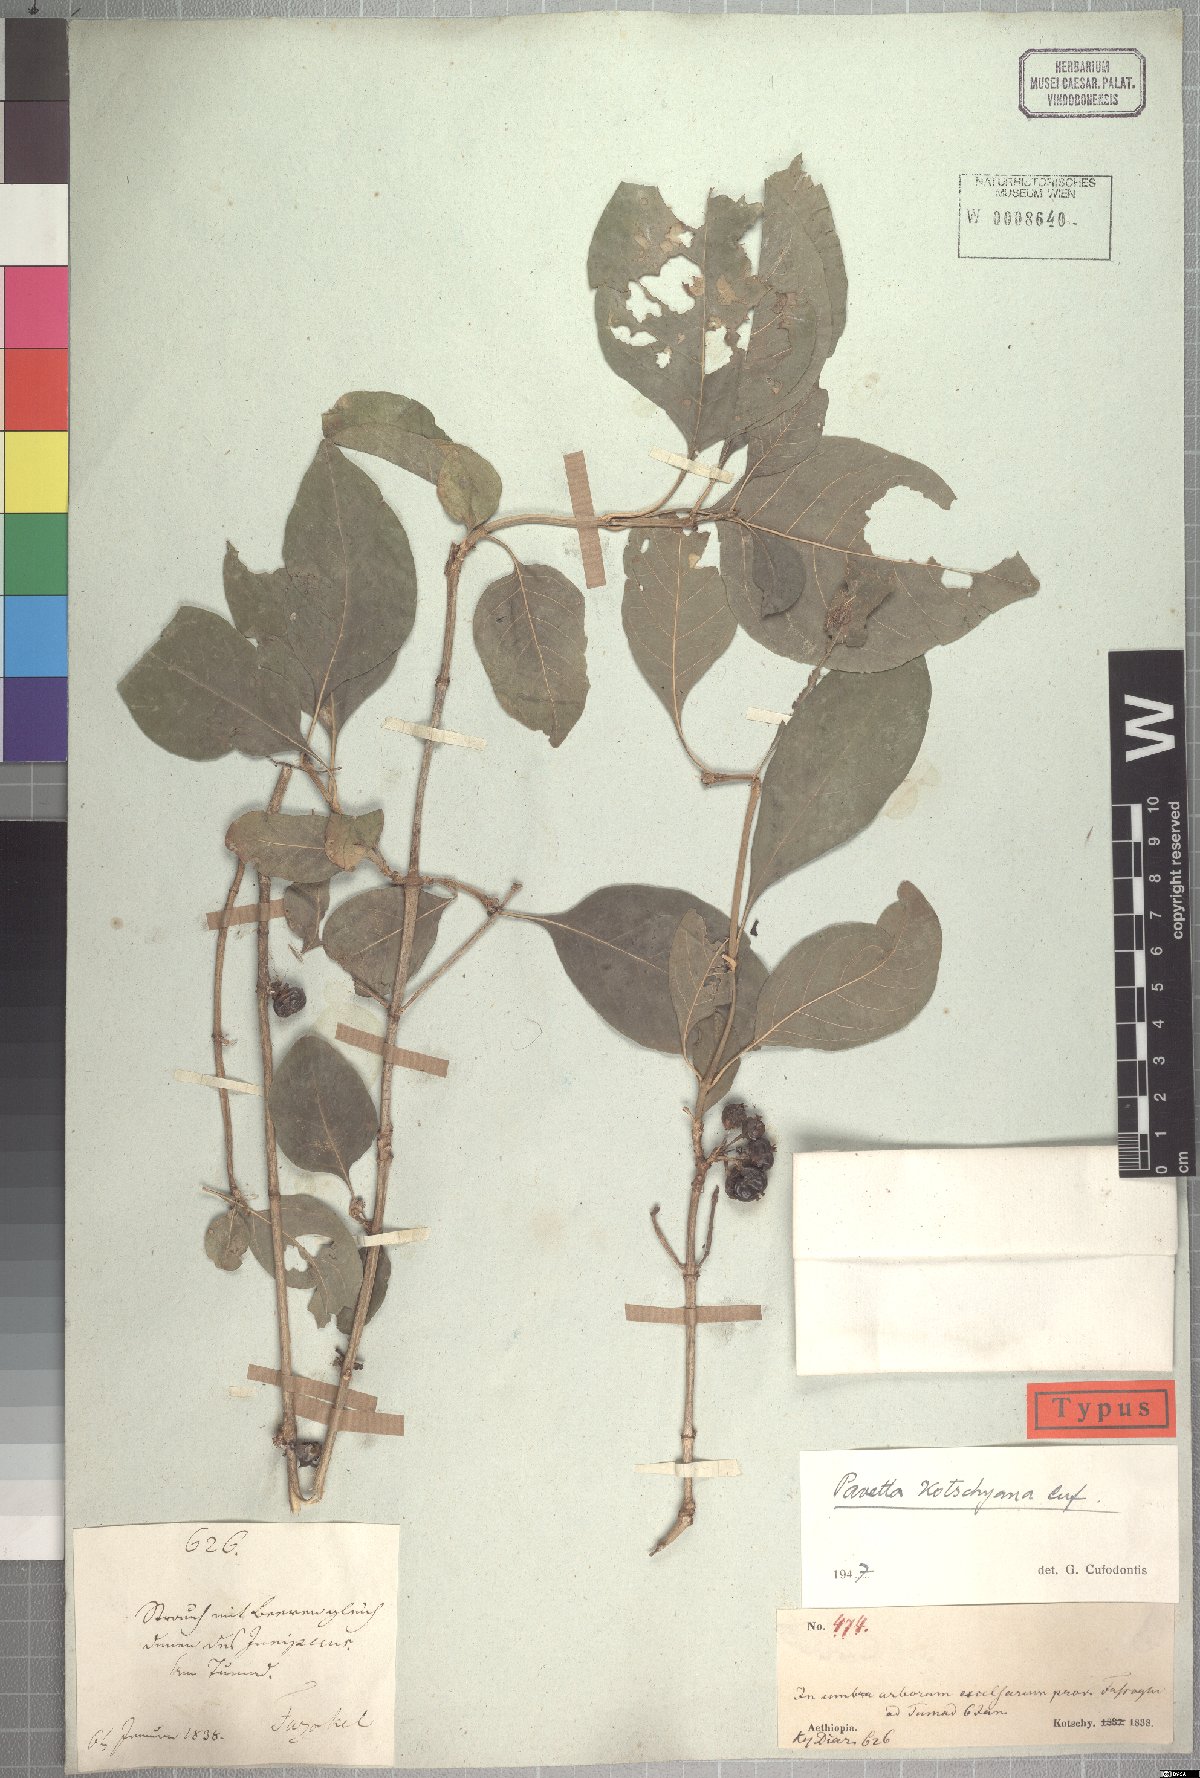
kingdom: Plantae
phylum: Tracheophyta
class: Magnoliopsida
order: Gentianales
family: Rubiaceae
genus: Pavetta
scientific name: Pavetta subcana
